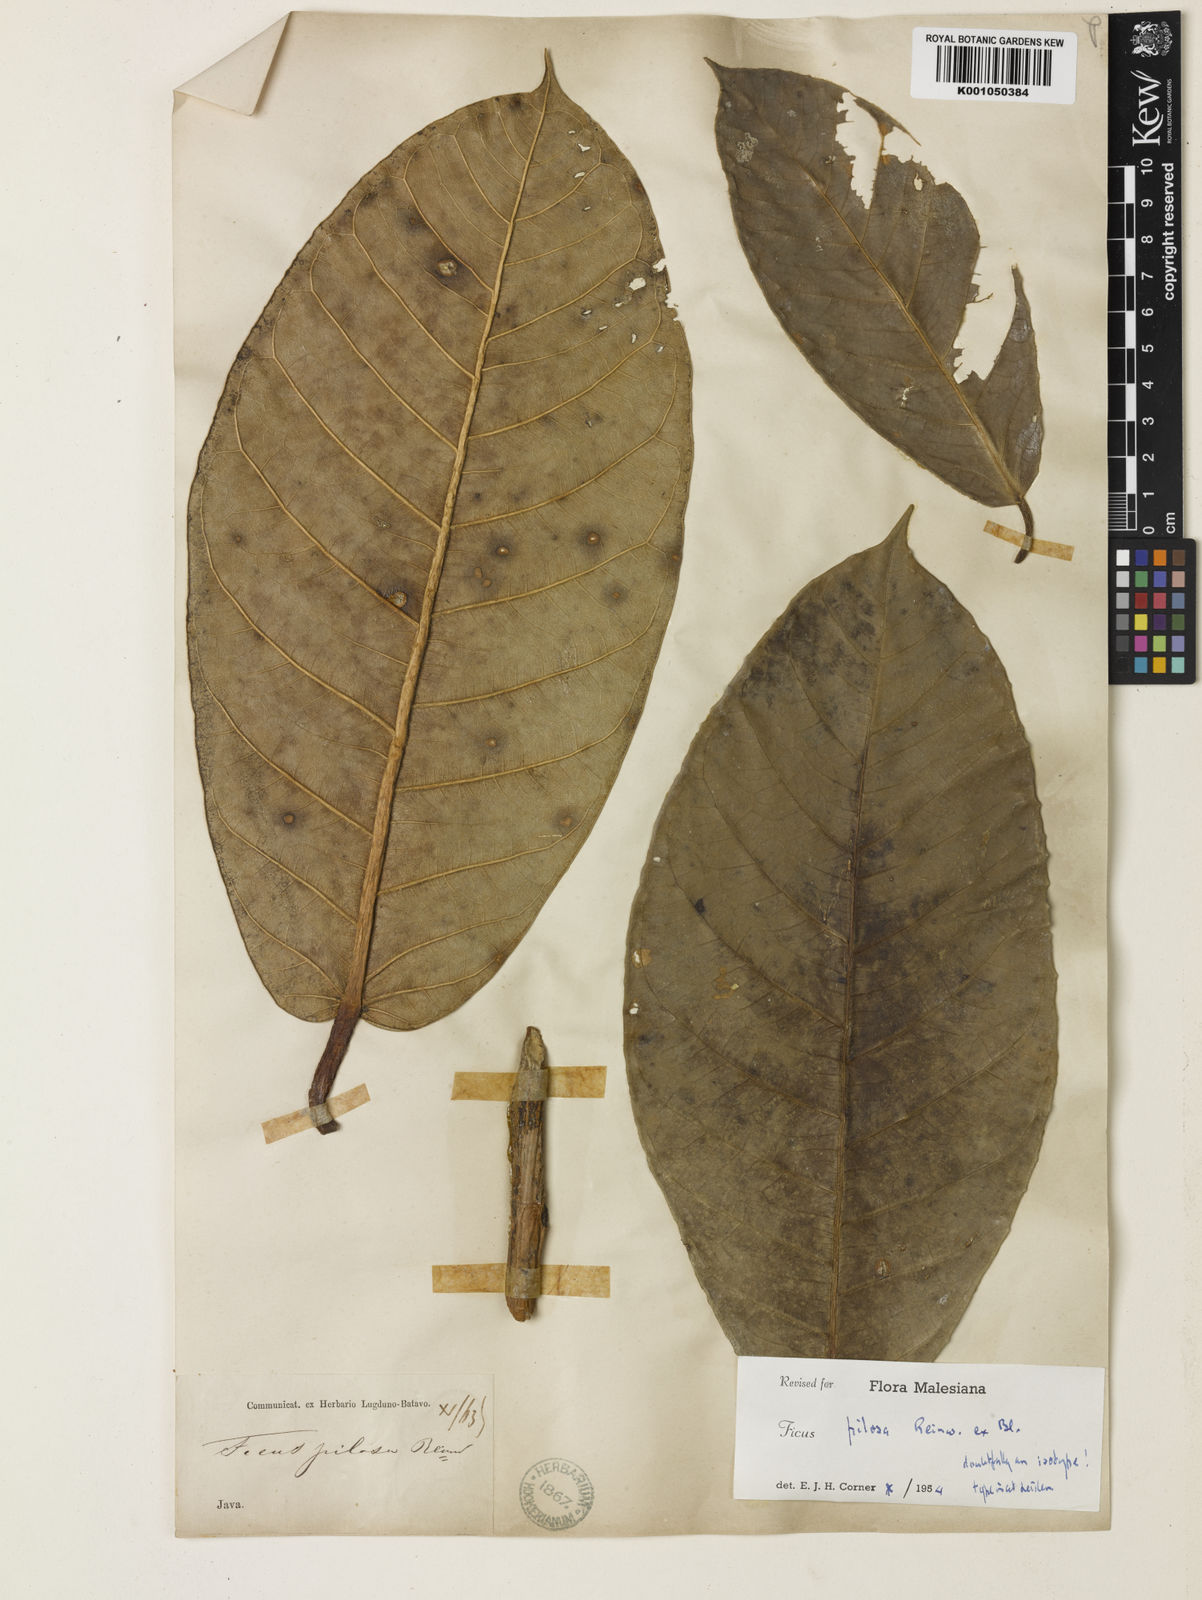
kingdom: Plantae
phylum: Tracheophyta
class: Magnoliopsida
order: Rosales
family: Moraceae
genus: Ficus
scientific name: Ficus drupacea
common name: Drupe fig
